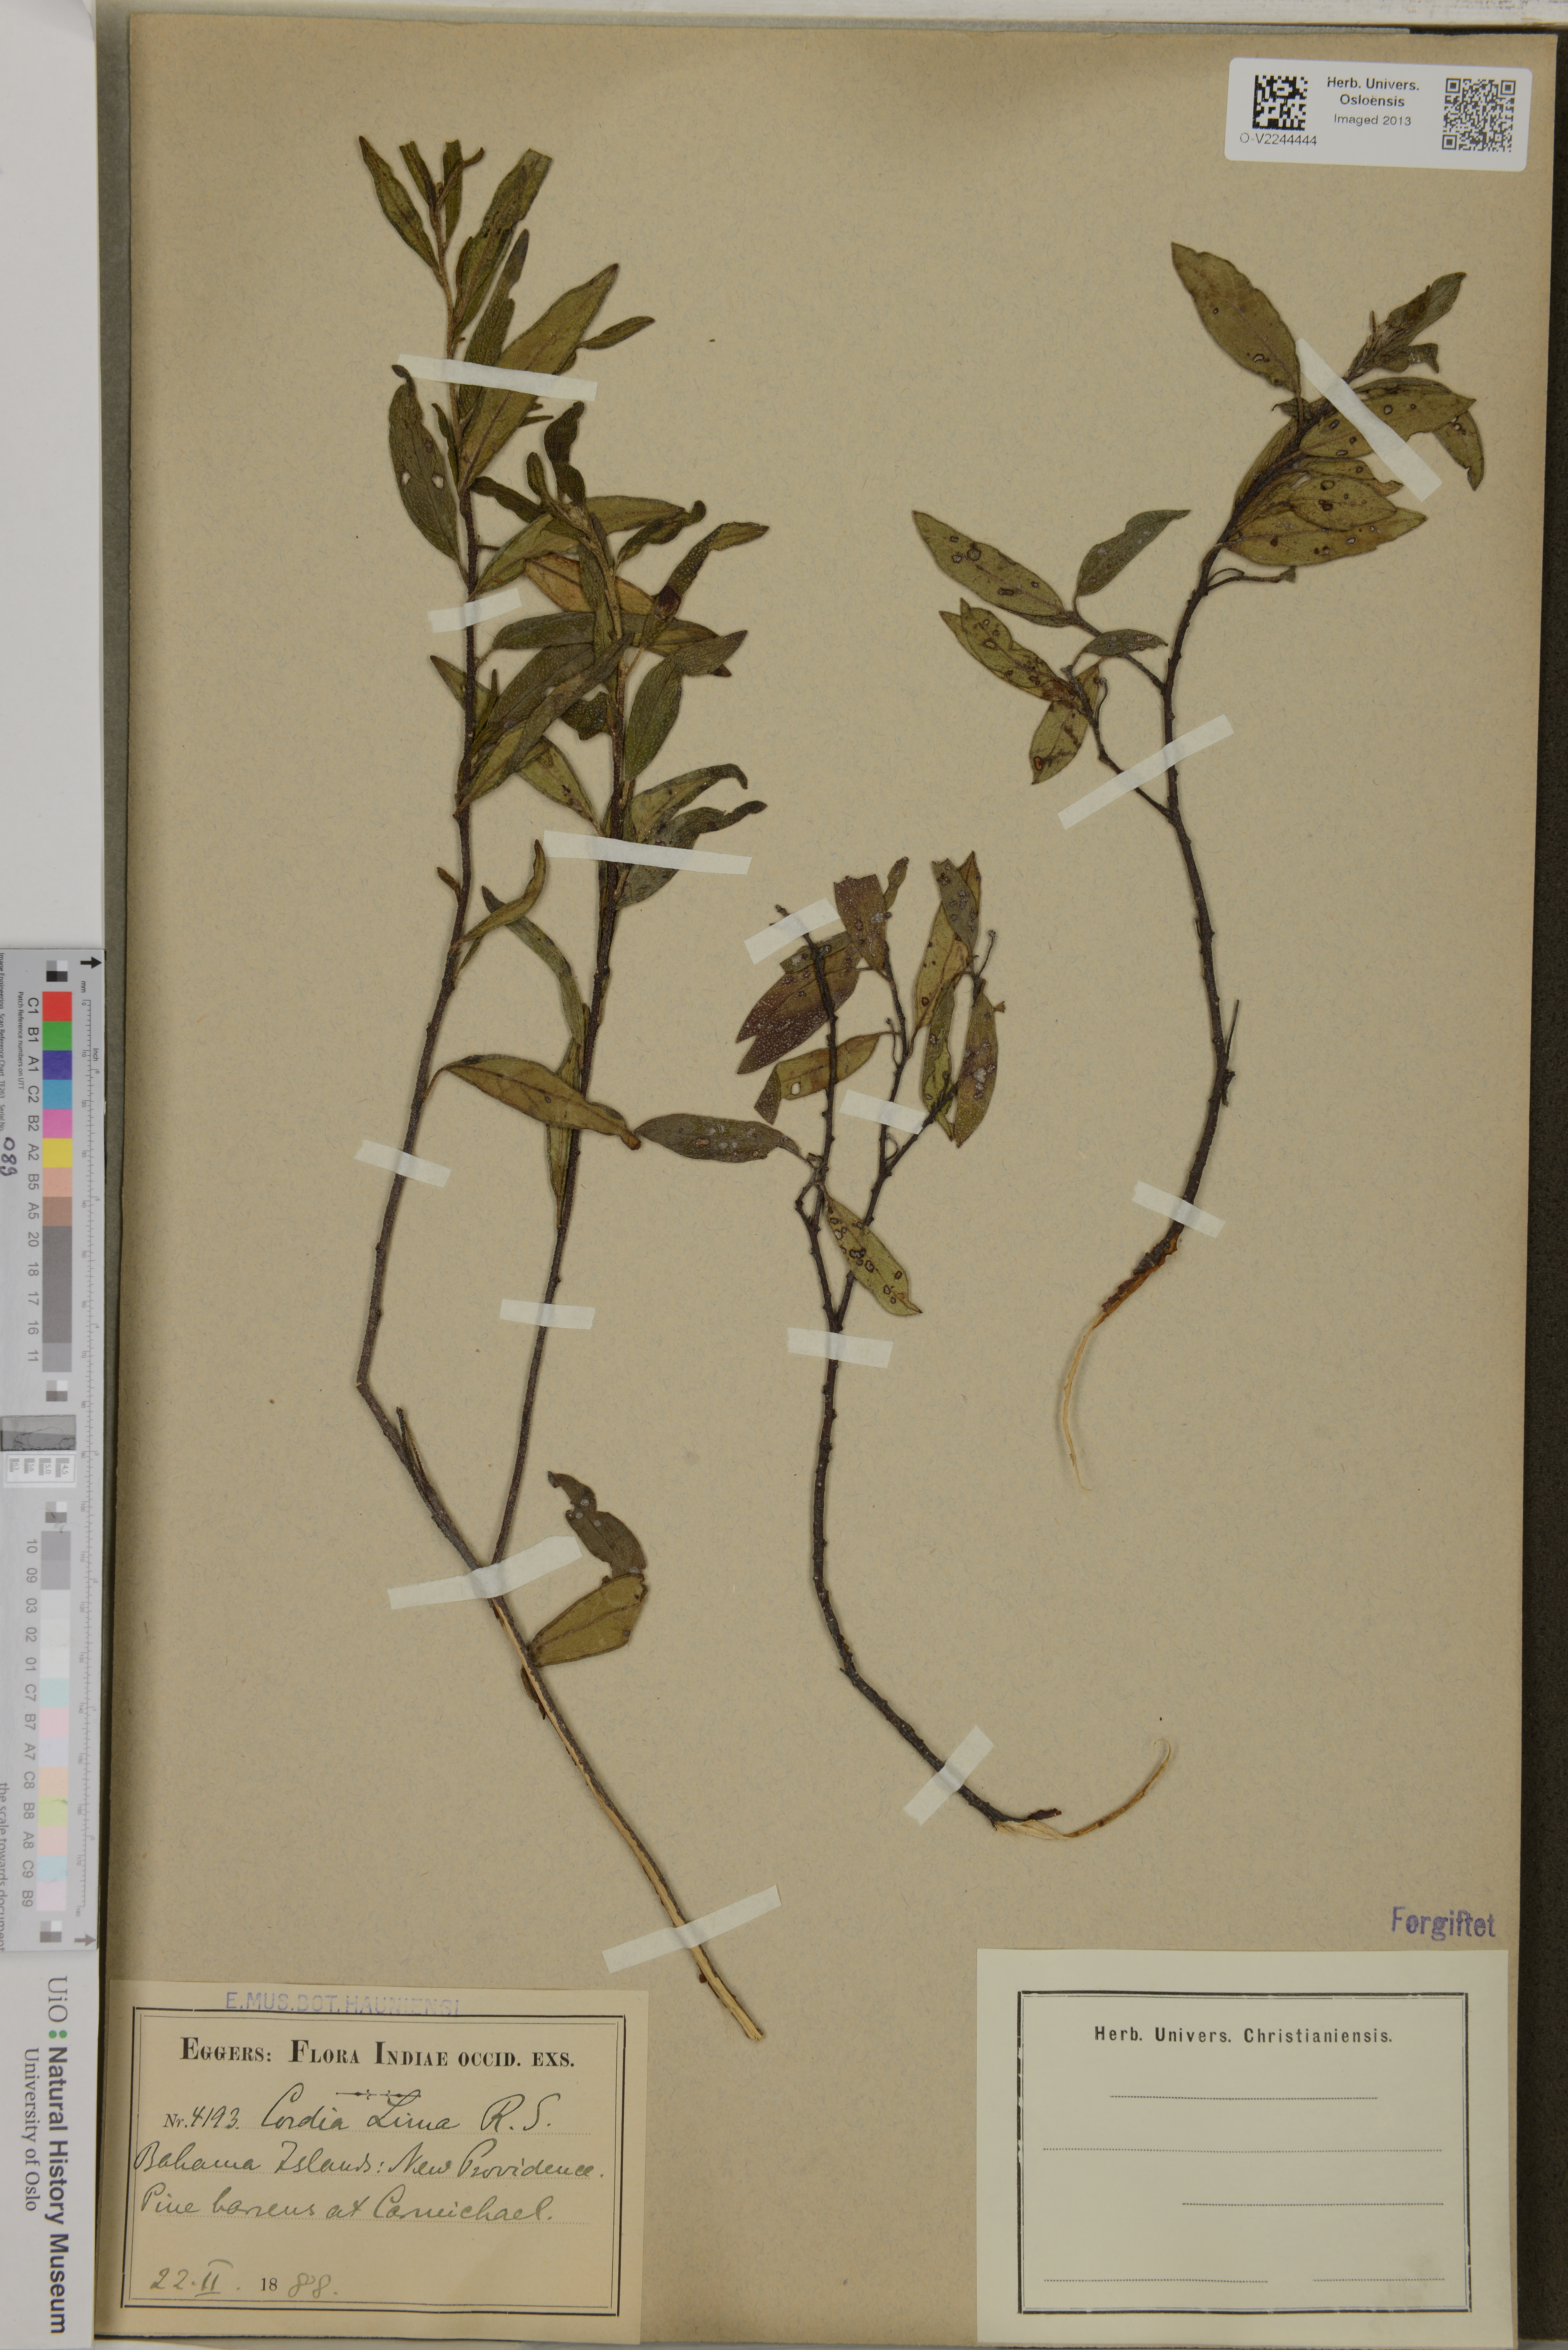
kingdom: Plantae
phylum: Tracheophyta
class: Magnoliopsida
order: Boraginales
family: Cordiaceae
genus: Varronia
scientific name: Varronia lima
